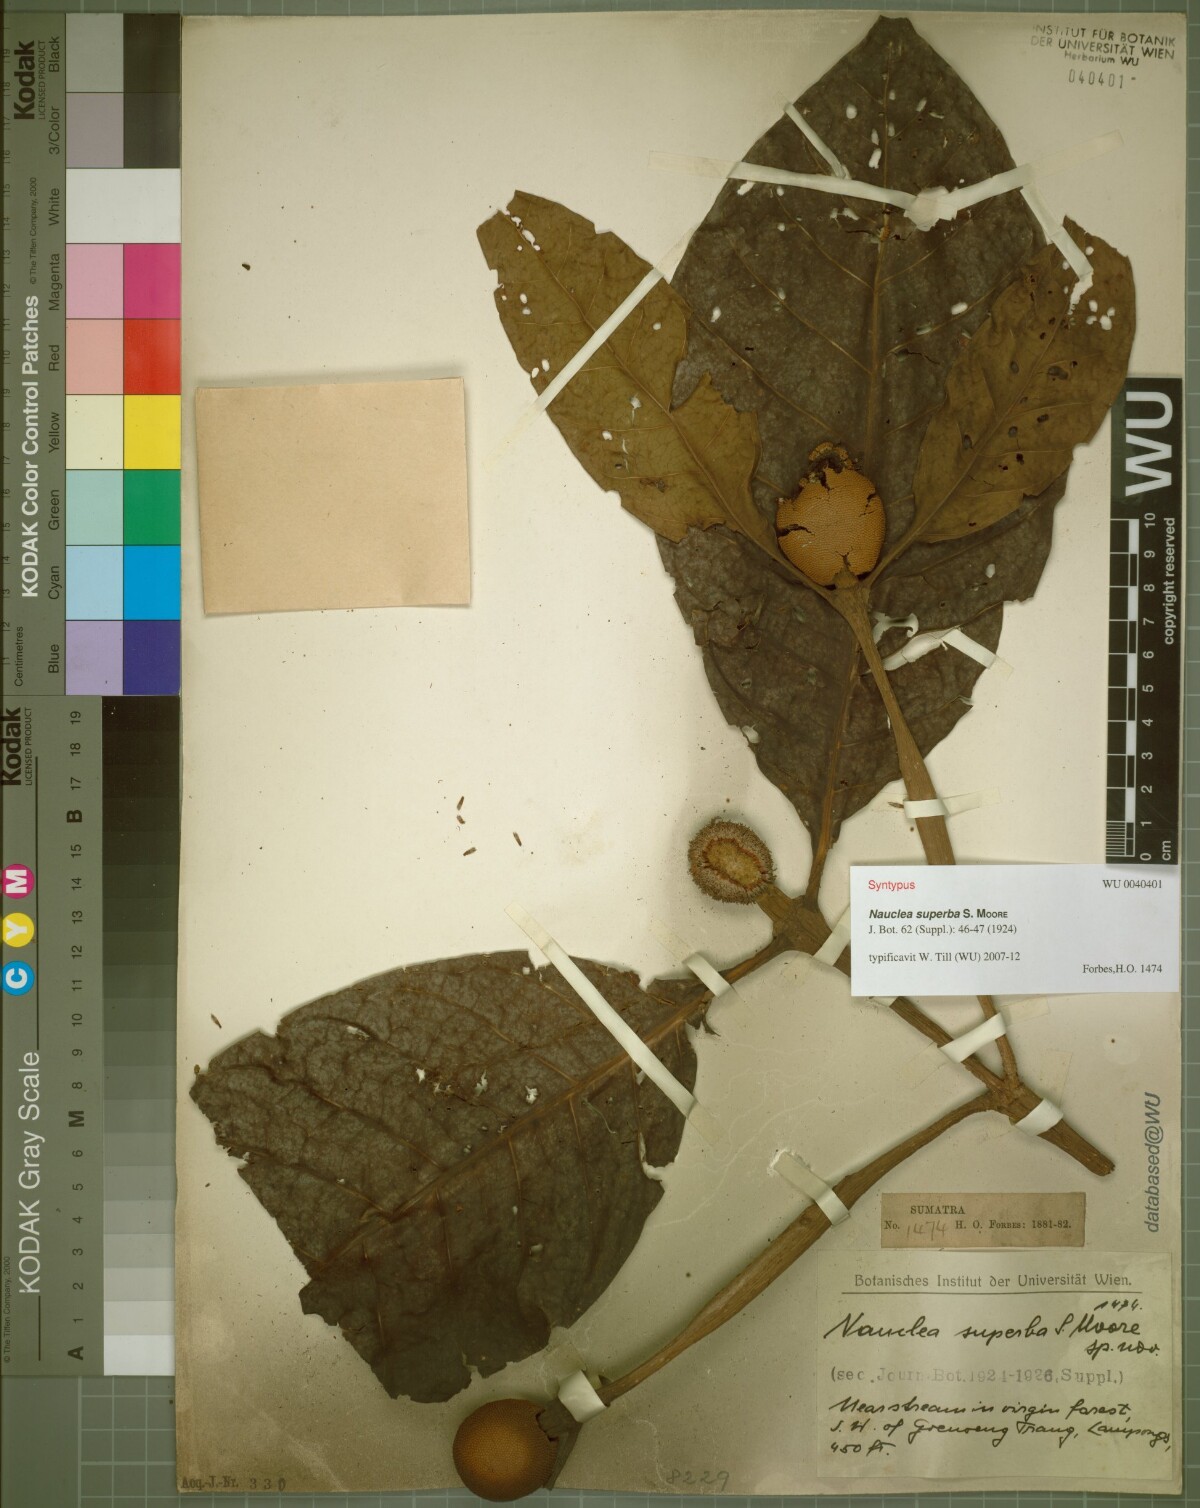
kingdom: Plantae
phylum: Tracheophyta
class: Magnoliopsida
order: Gentianales
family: Rubiaceae
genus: Neonauclea
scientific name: Neonauclea superba
